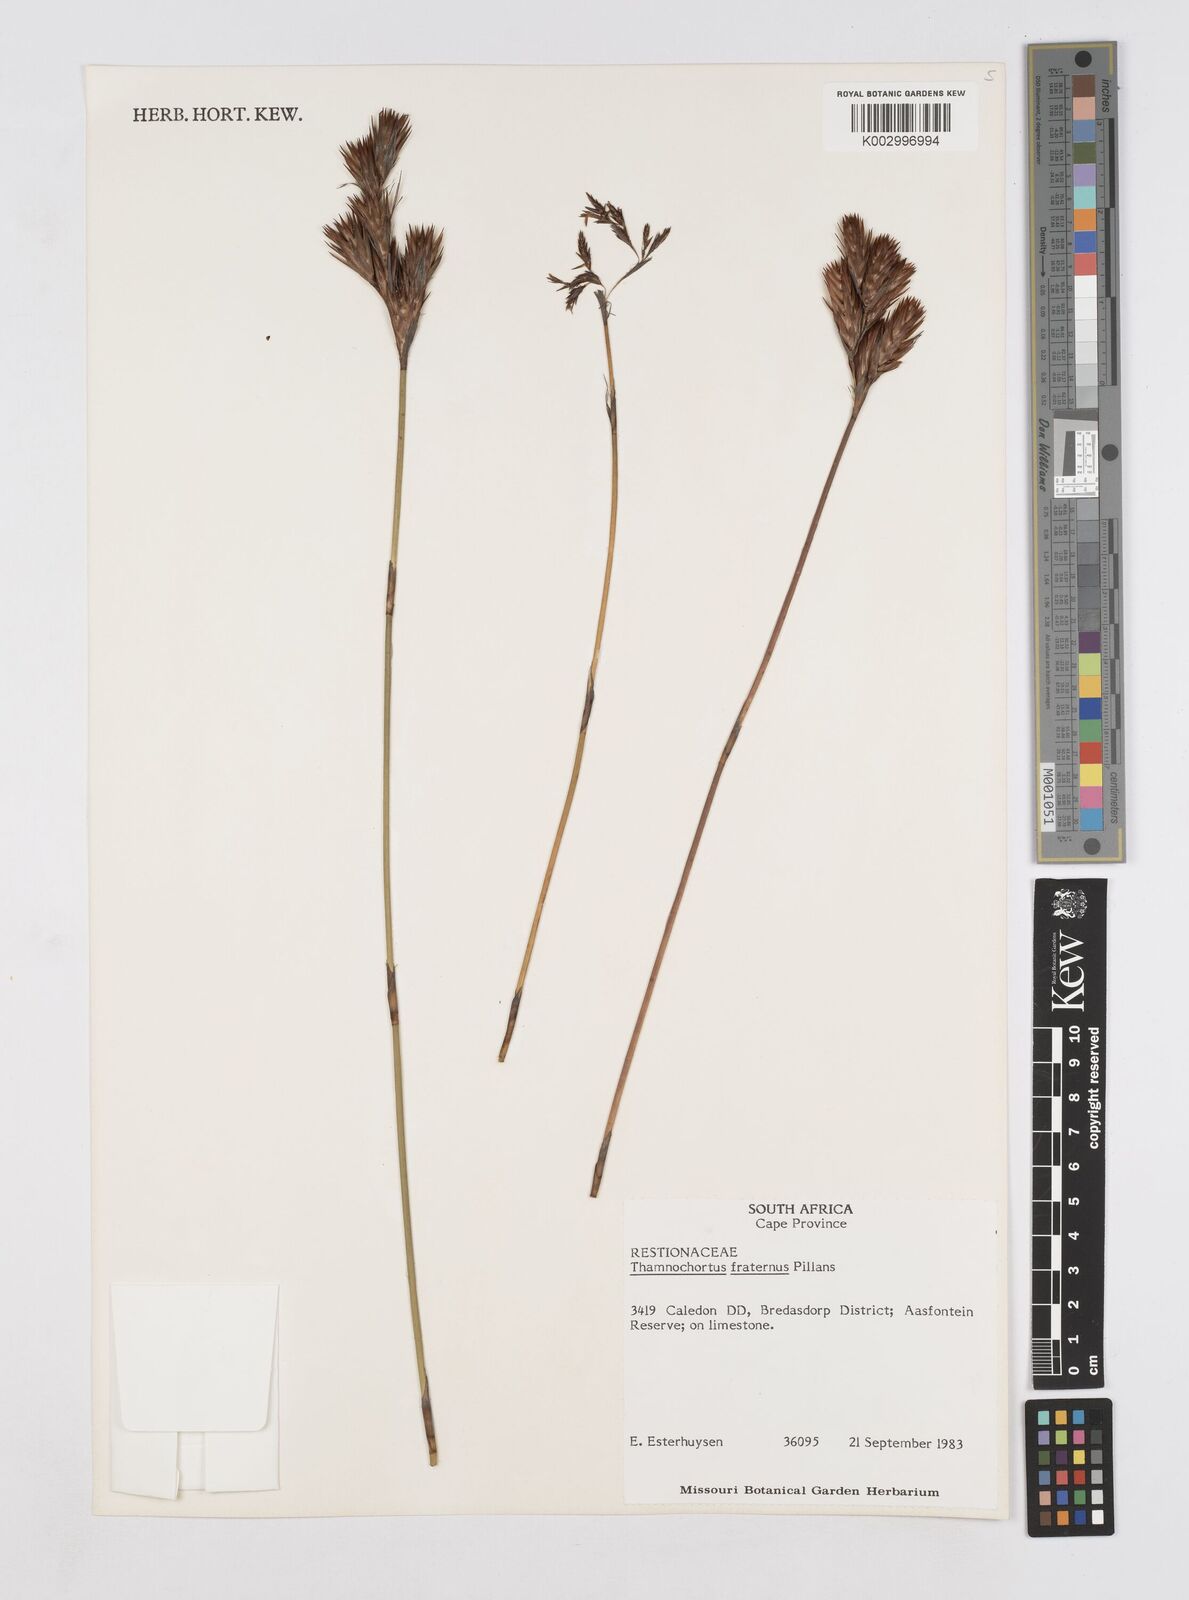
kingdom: Plantae
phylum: Tracheophyta
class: Liliopsida
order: Poales
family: Restionaceae
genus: Thamnochortus
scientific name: Thamnochortus fraternus
